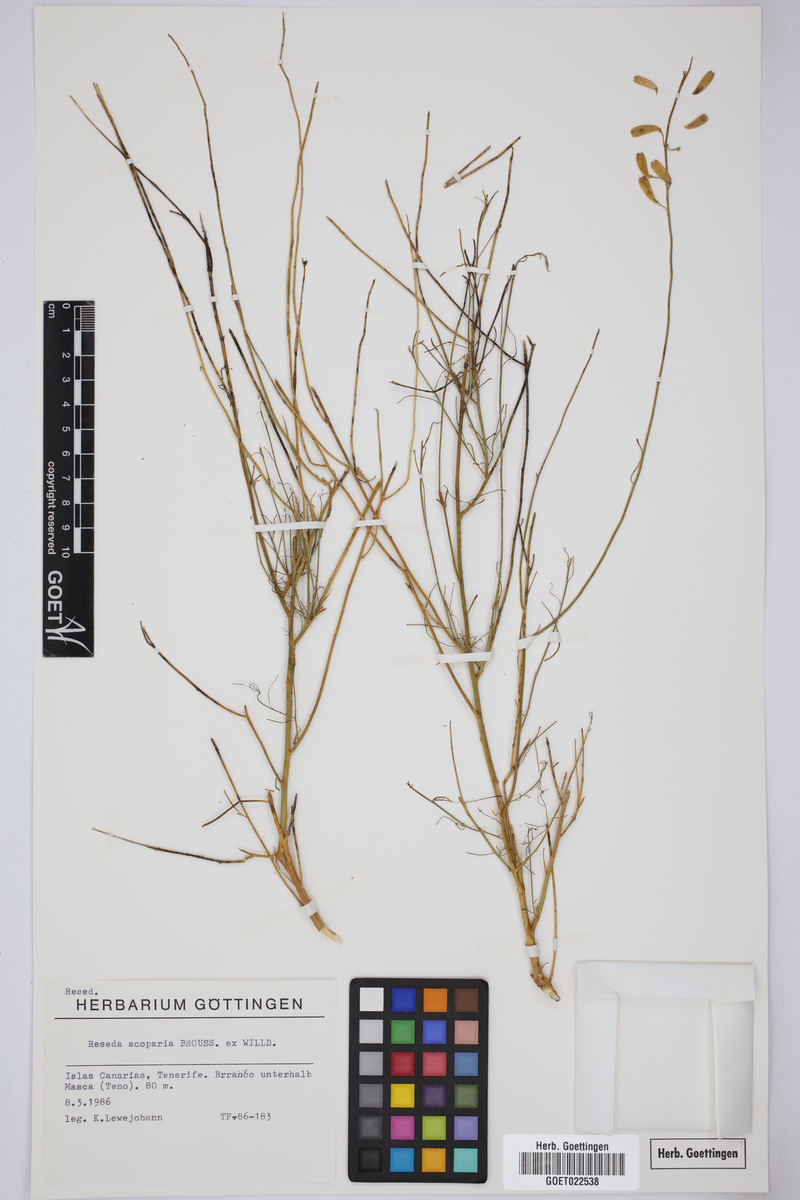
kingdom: Plantae
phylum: Tracheophyta
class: Magnoliopsida
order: Brassicales
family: Resedaceae
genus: Reseda
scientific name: Reseda scoparia
